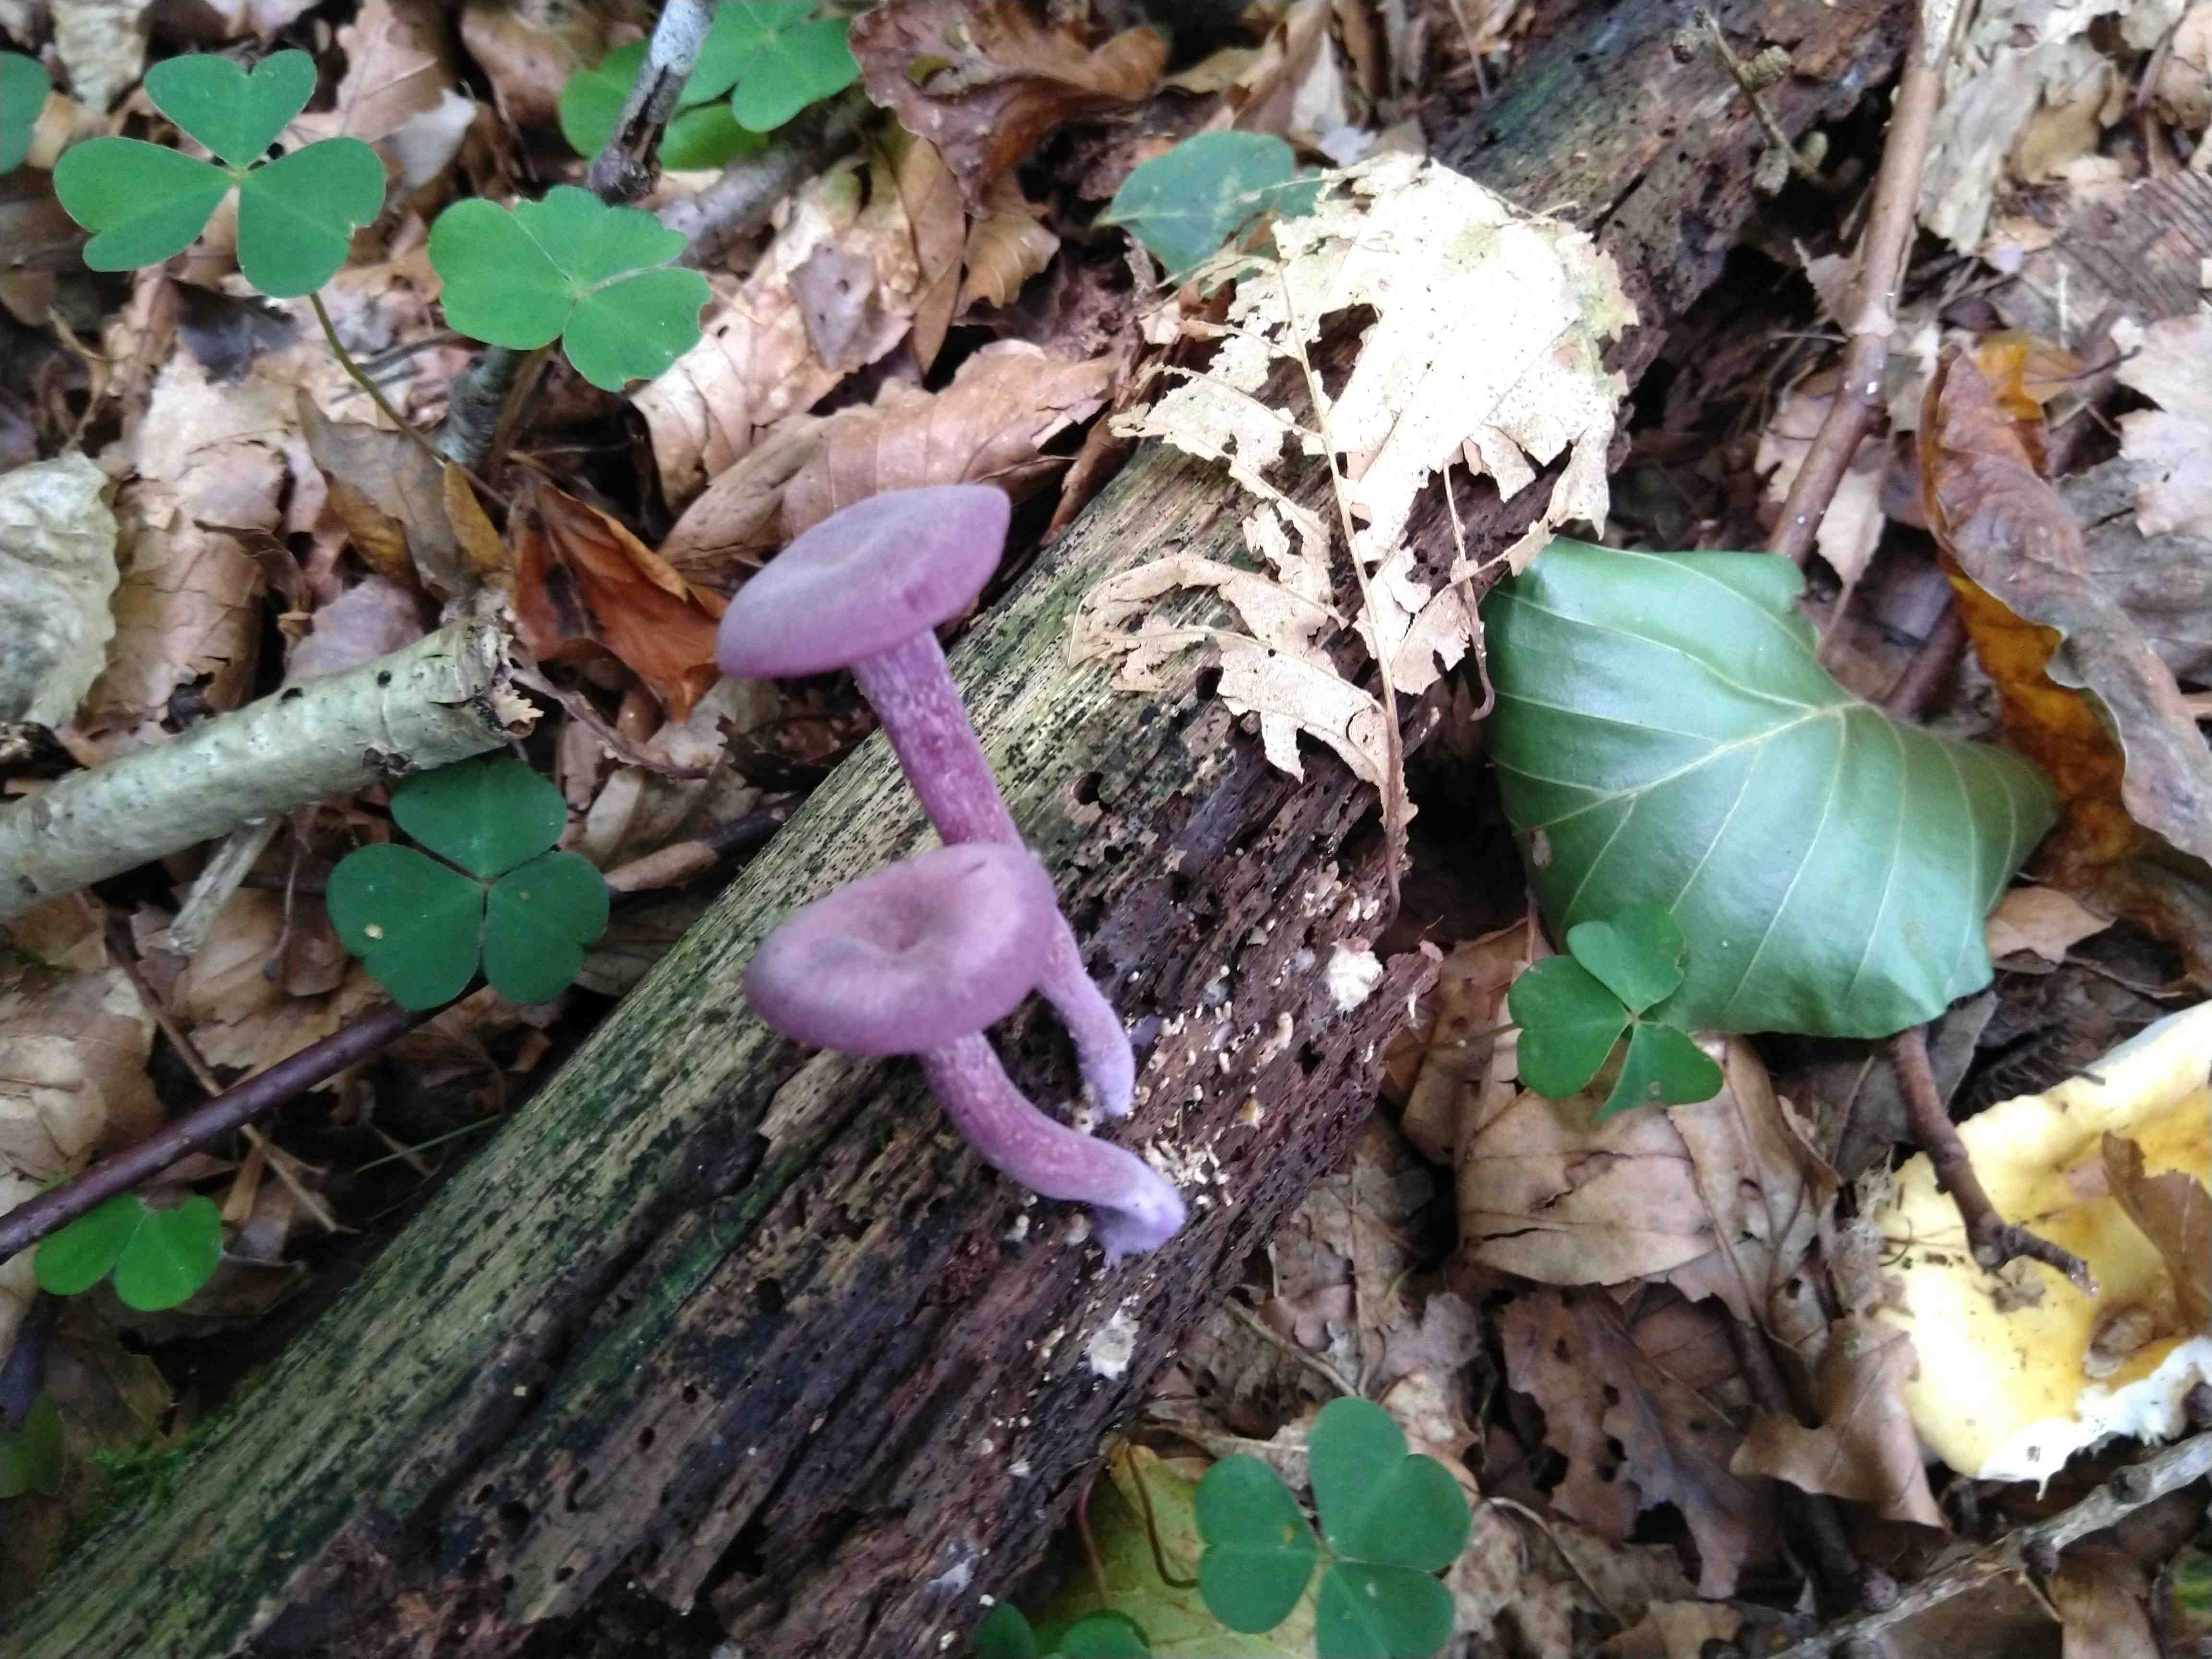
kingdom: Fungi
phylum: Basidiomycota
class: Agaricomycetes
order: Agaricales
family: Hydnangiaceae
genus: Laccaria
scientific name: Laccaria amethystina
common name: violet ametysthat
